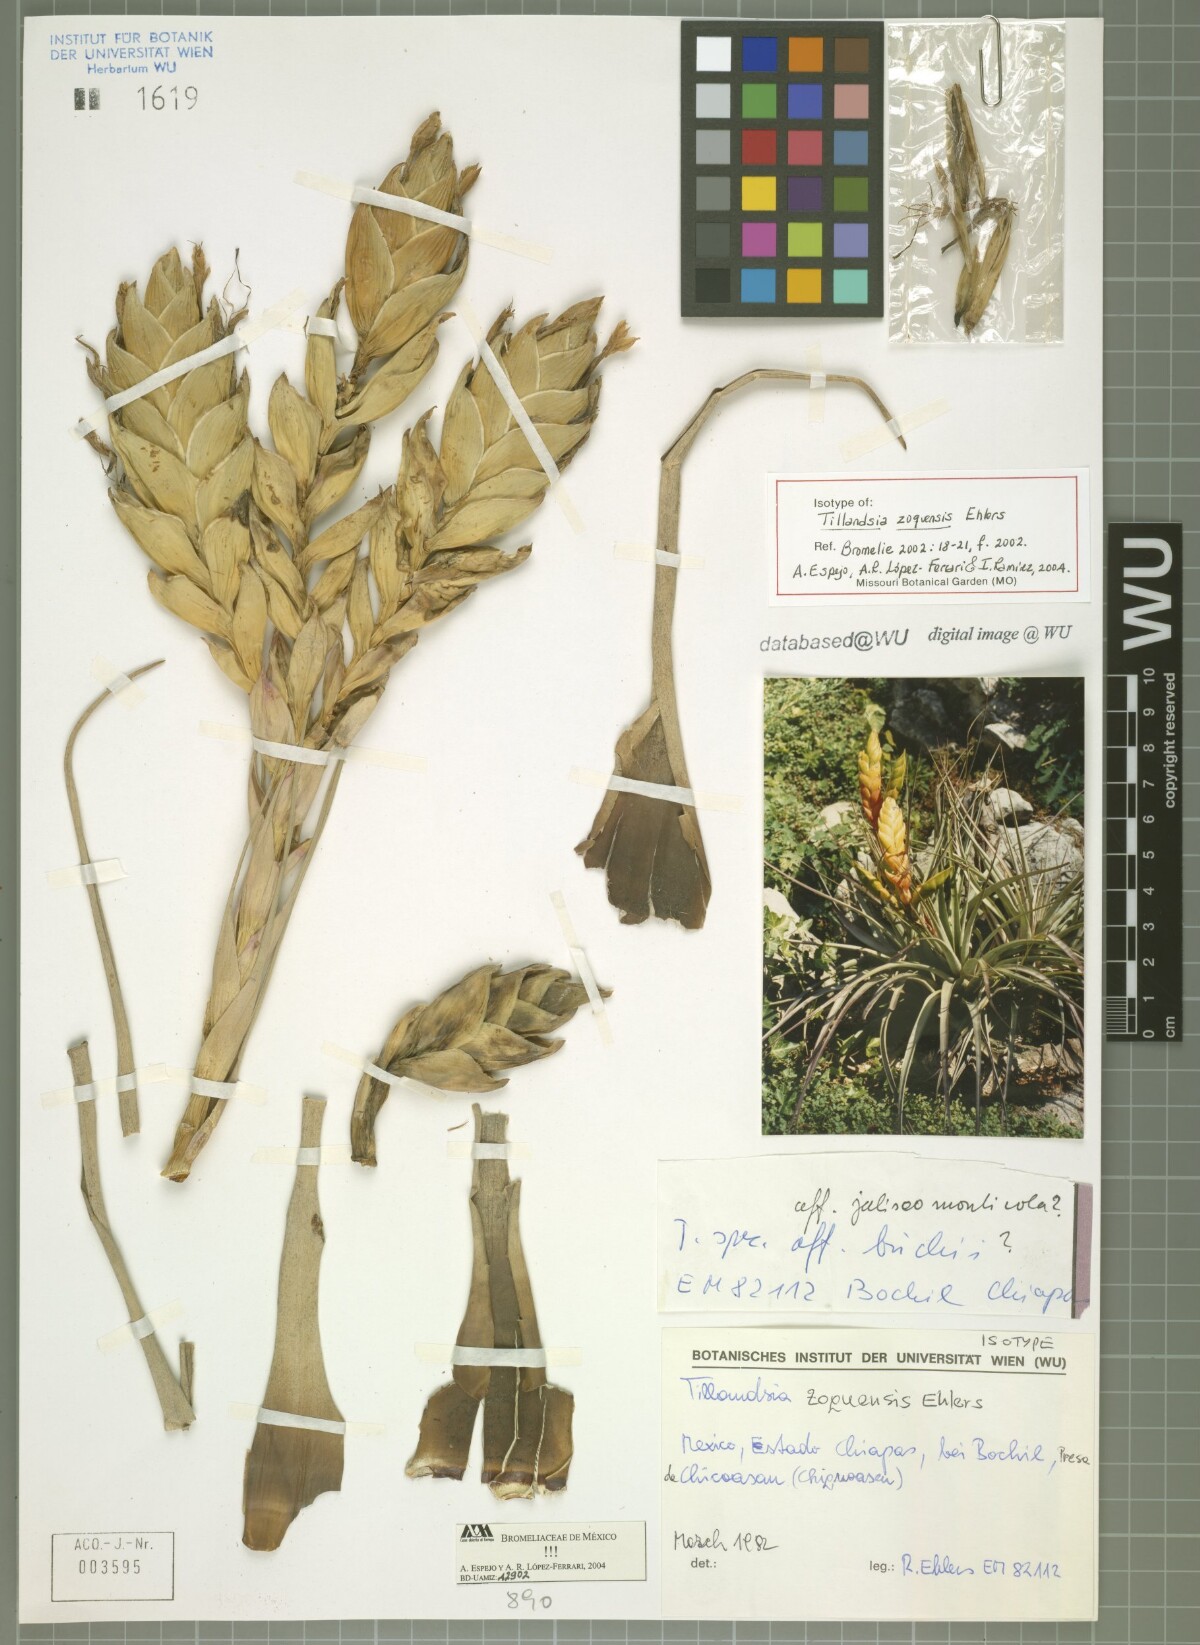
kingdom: Plantae
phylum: Tracheophyta
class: Liliopsida
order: Poales
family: Bromeliaceae
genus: Tillandsia
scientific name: Tillandsia zoquensis
